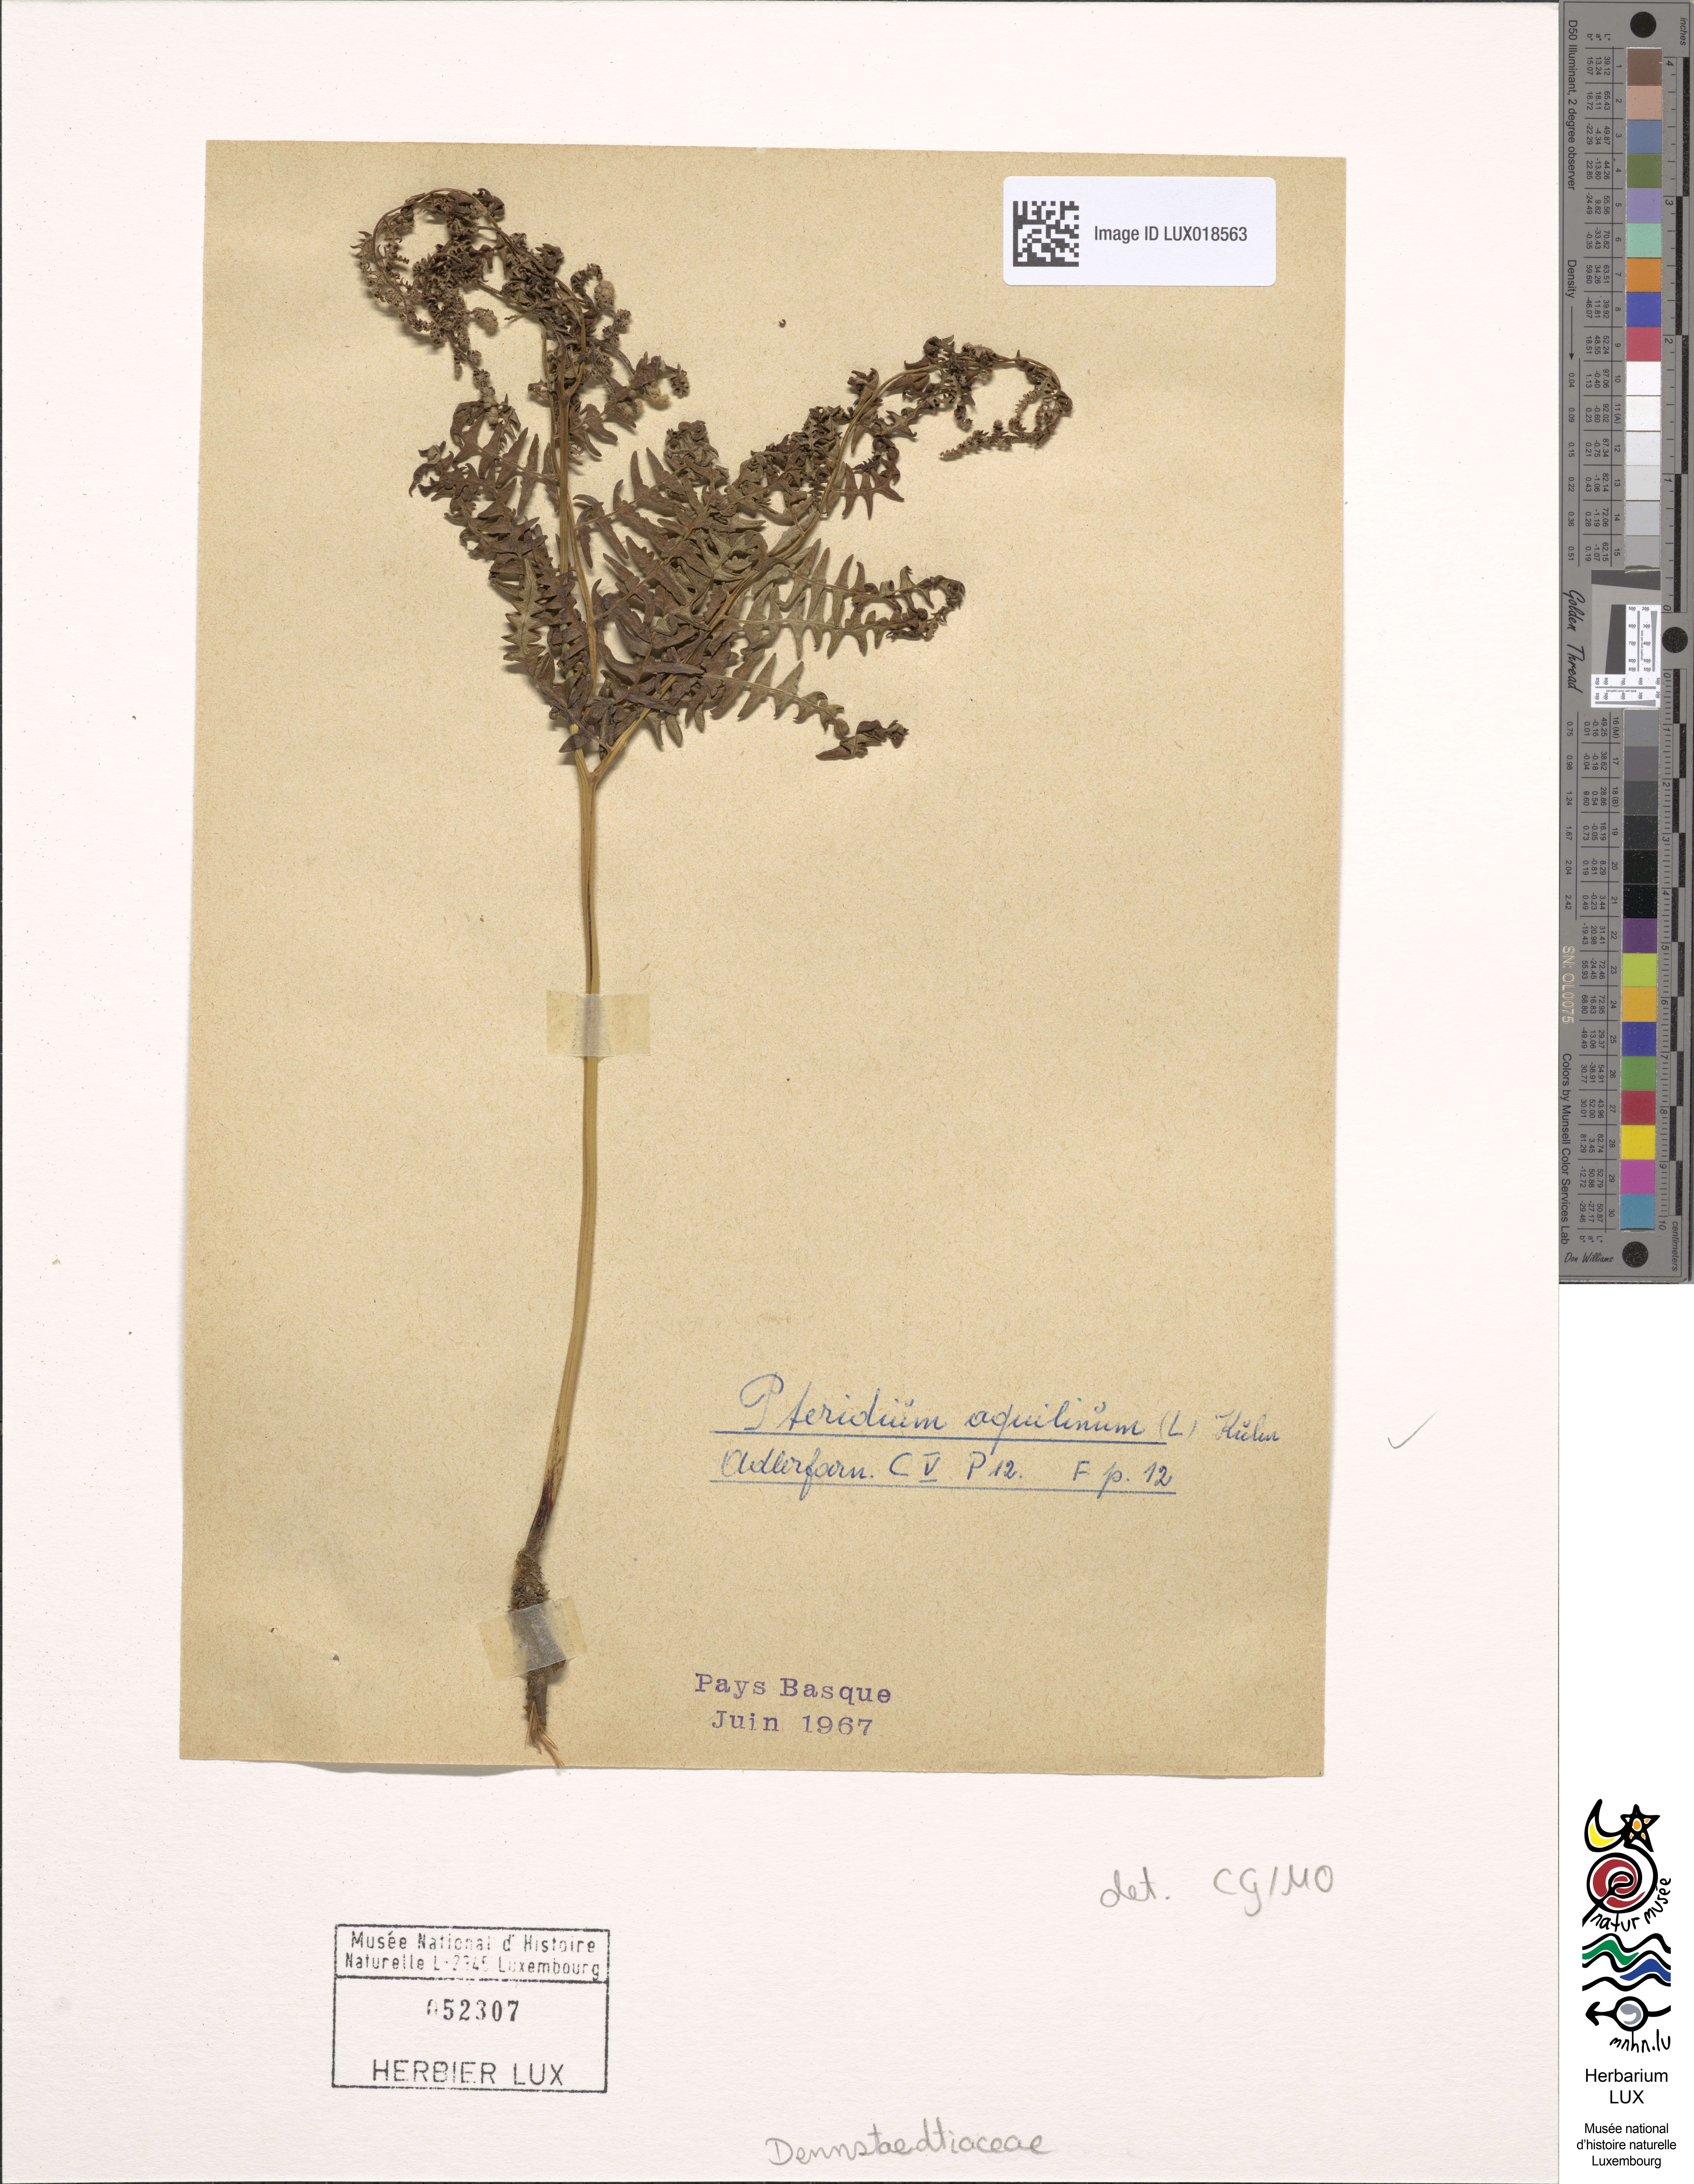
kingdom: Plantae
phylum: Tracheophyta
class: Polypodiopsida
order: Polypodiales
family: Dennstaedtiaceae
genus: Pteridium
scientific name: Pteridium aquilinum
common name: Bracken
